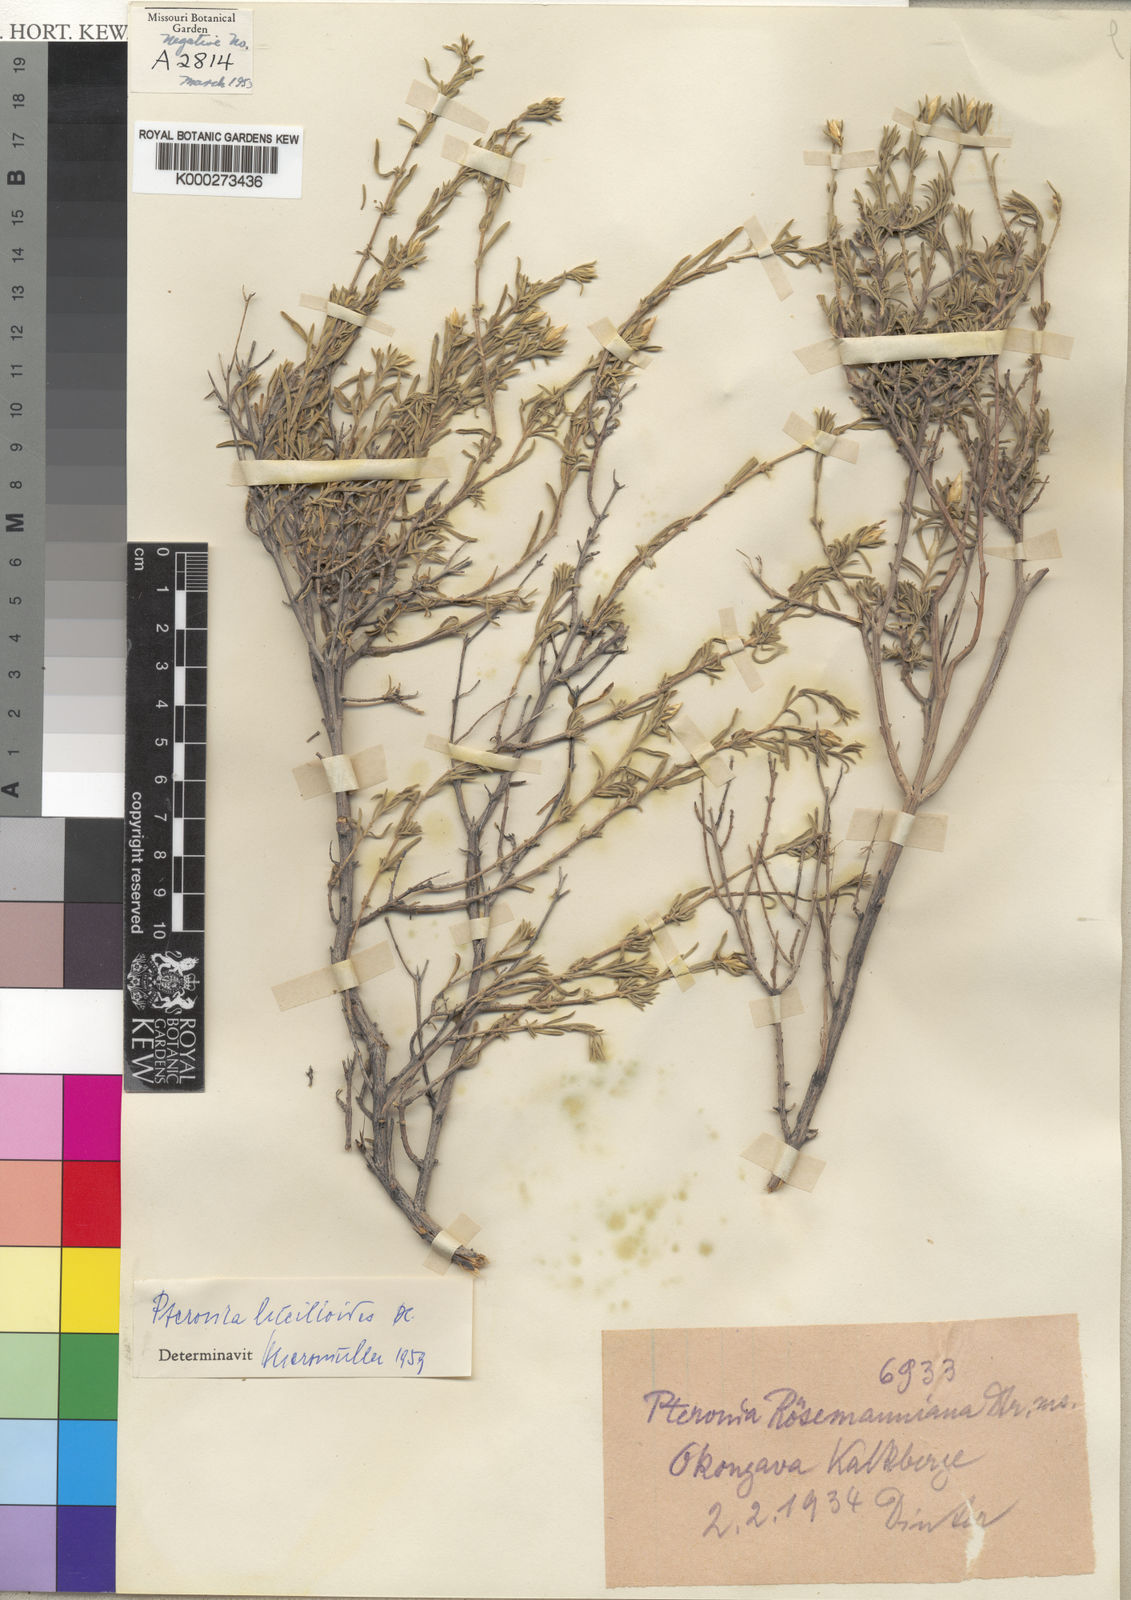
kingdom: Plantae
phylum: Tracheophyta
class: Magnoliopsida
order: Asterales
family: Asteraceae
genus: Pteronia
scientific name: Pteronia lucilioides
